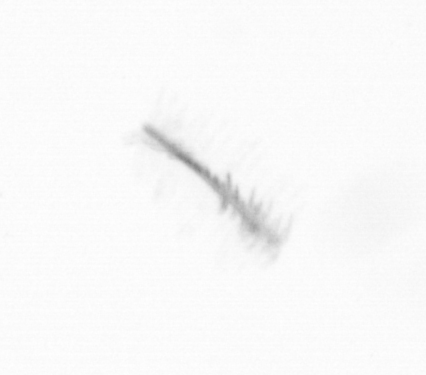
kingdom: Chromista
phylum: Ochrophyta
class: Bacillariophyceae
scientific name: Bacillariophyceae
